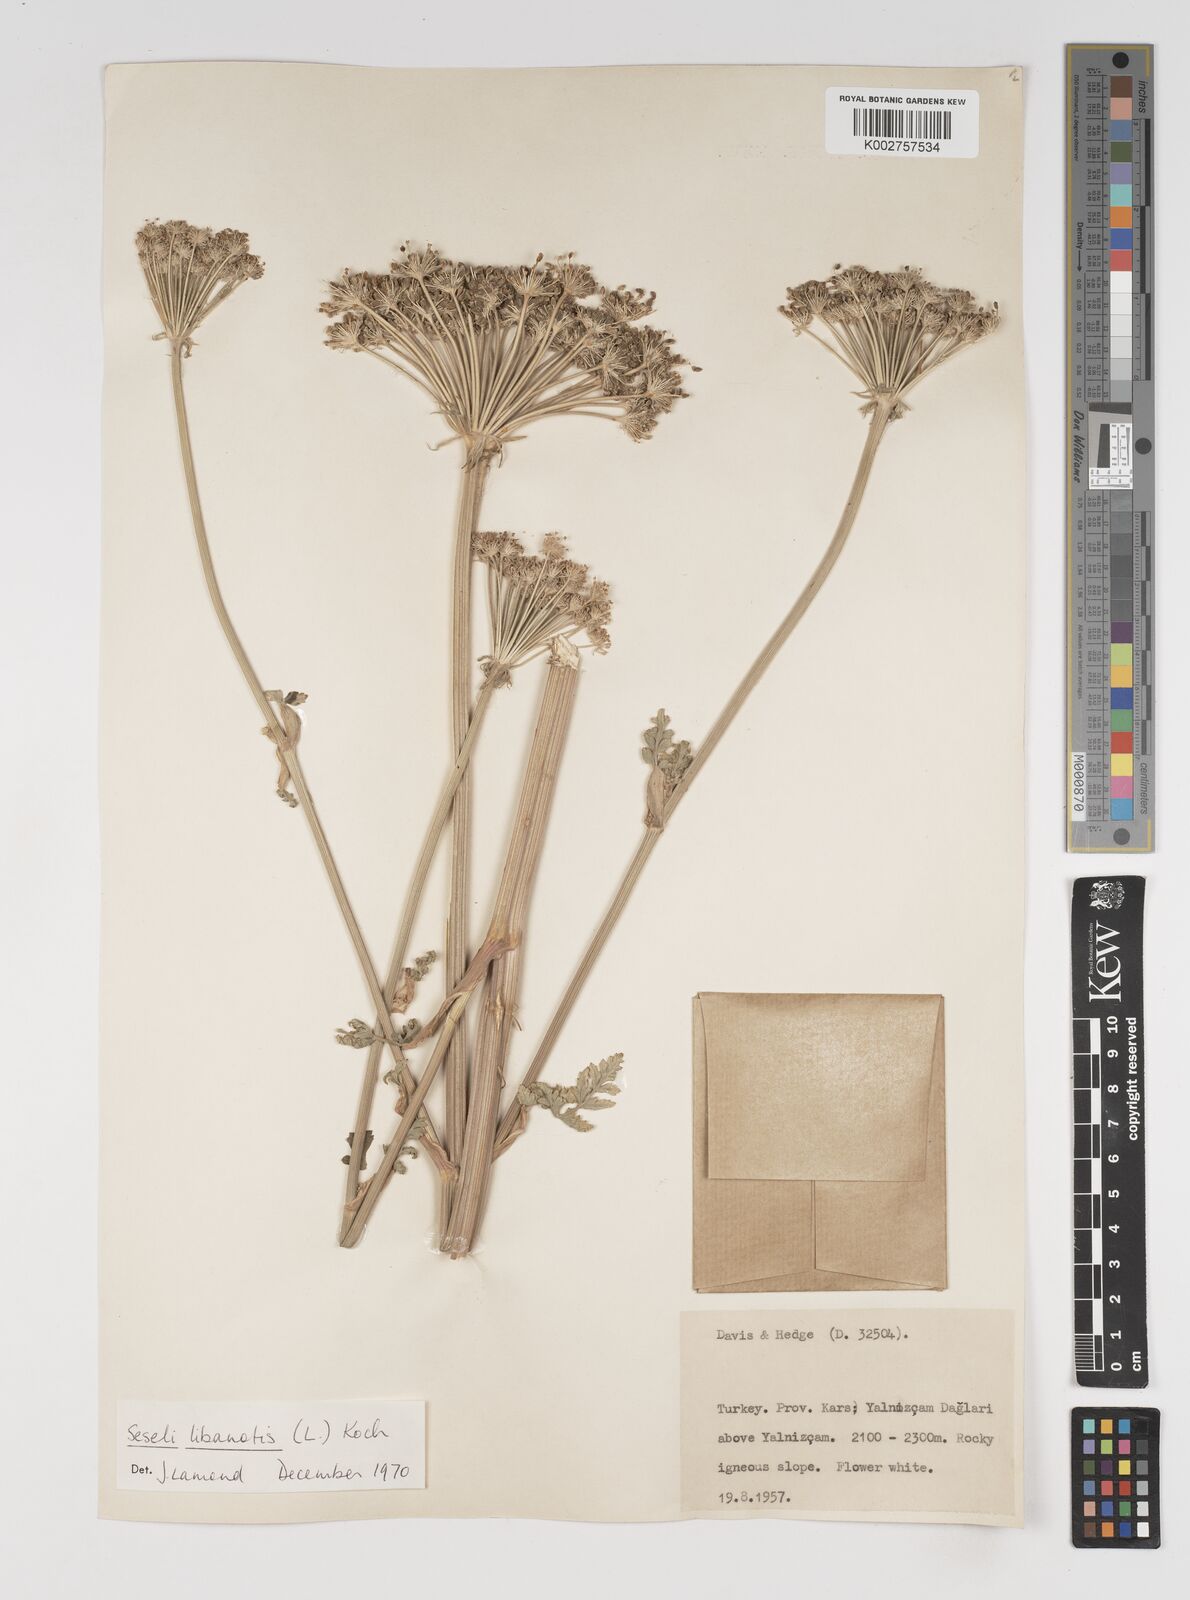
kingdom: Plantae
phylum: Tracheophyta
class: Magnoliopsida
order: Apiales
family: Apiaceae
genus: Seseli
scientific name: Seseli libanotis
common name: Mooncarrot
